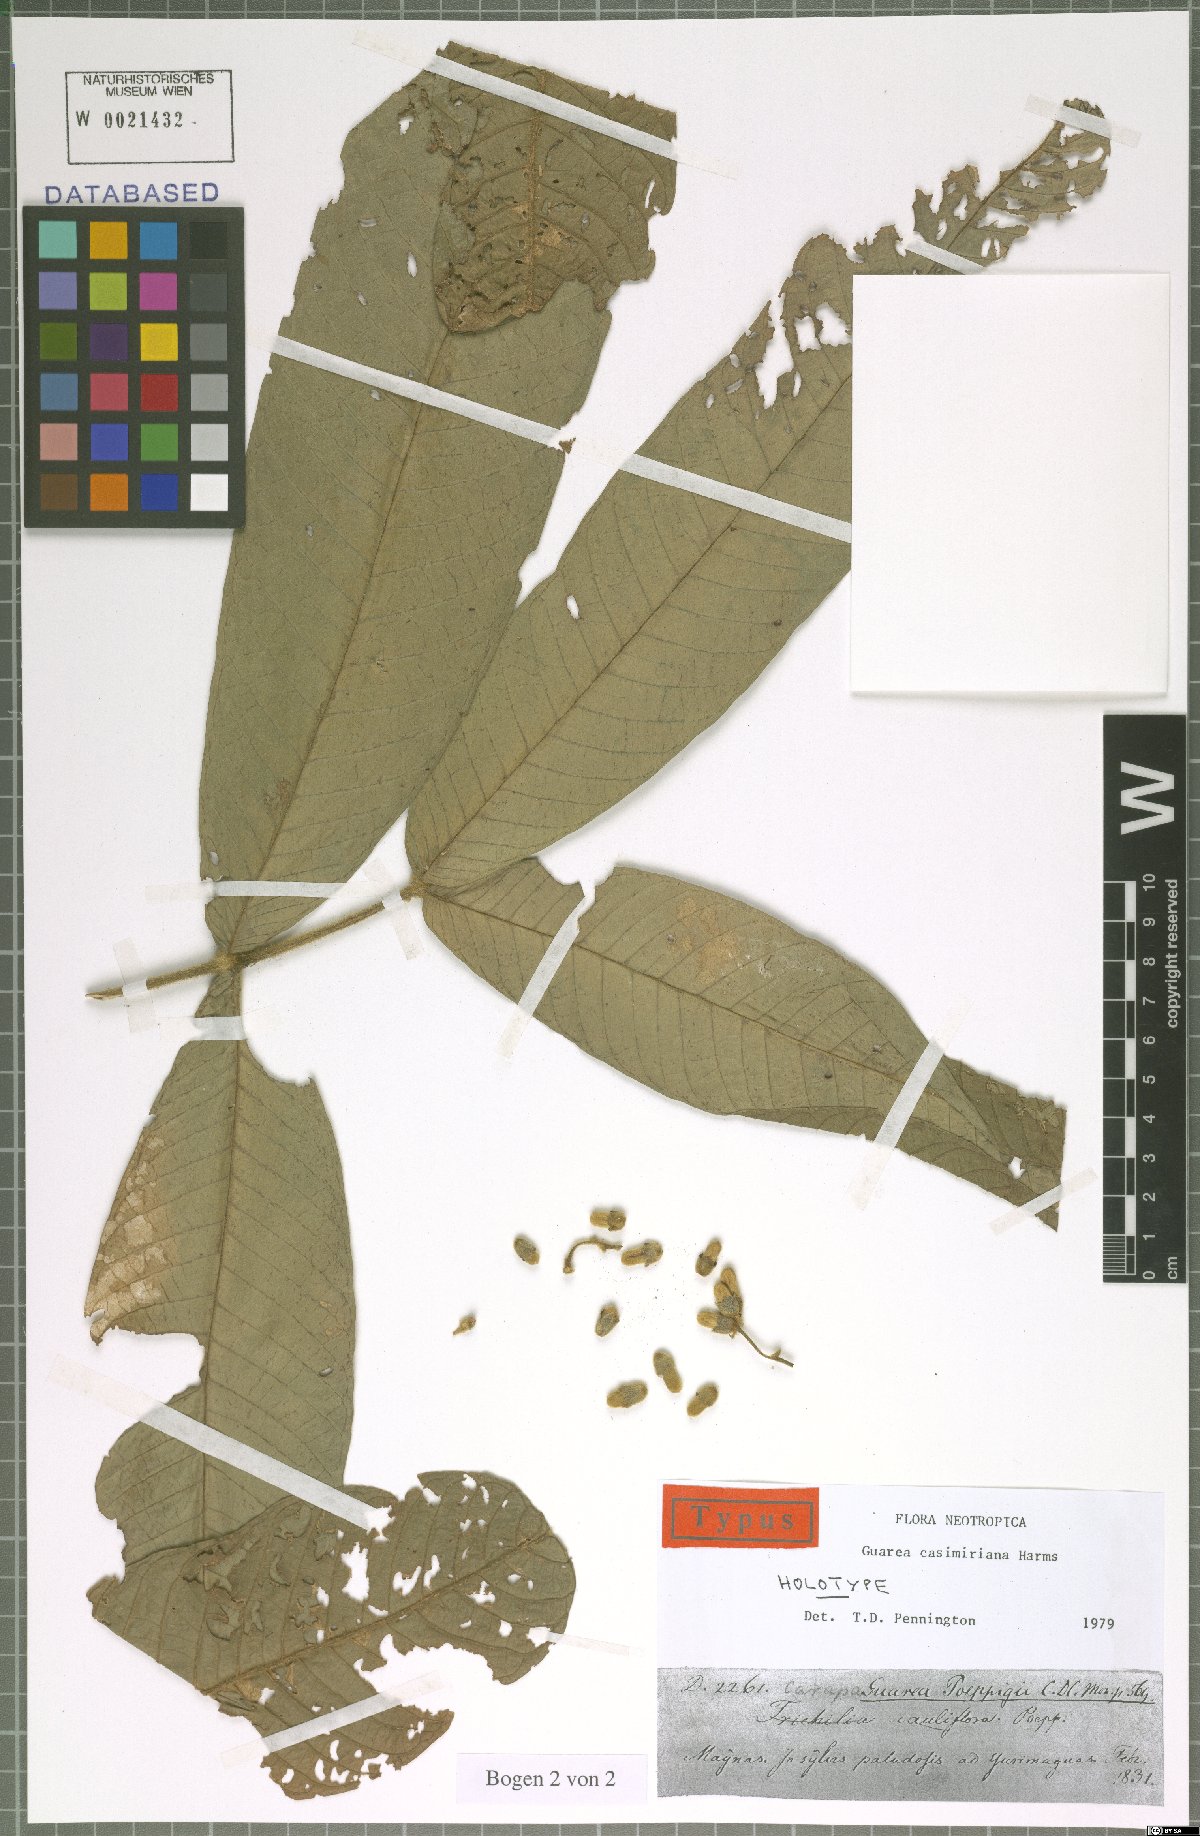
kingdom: Plantae
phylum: Tracheophyta
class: Magnoliopsida
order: Sapindales
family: Meliaceae
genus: Guarea
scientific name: Guarea casimiriana
